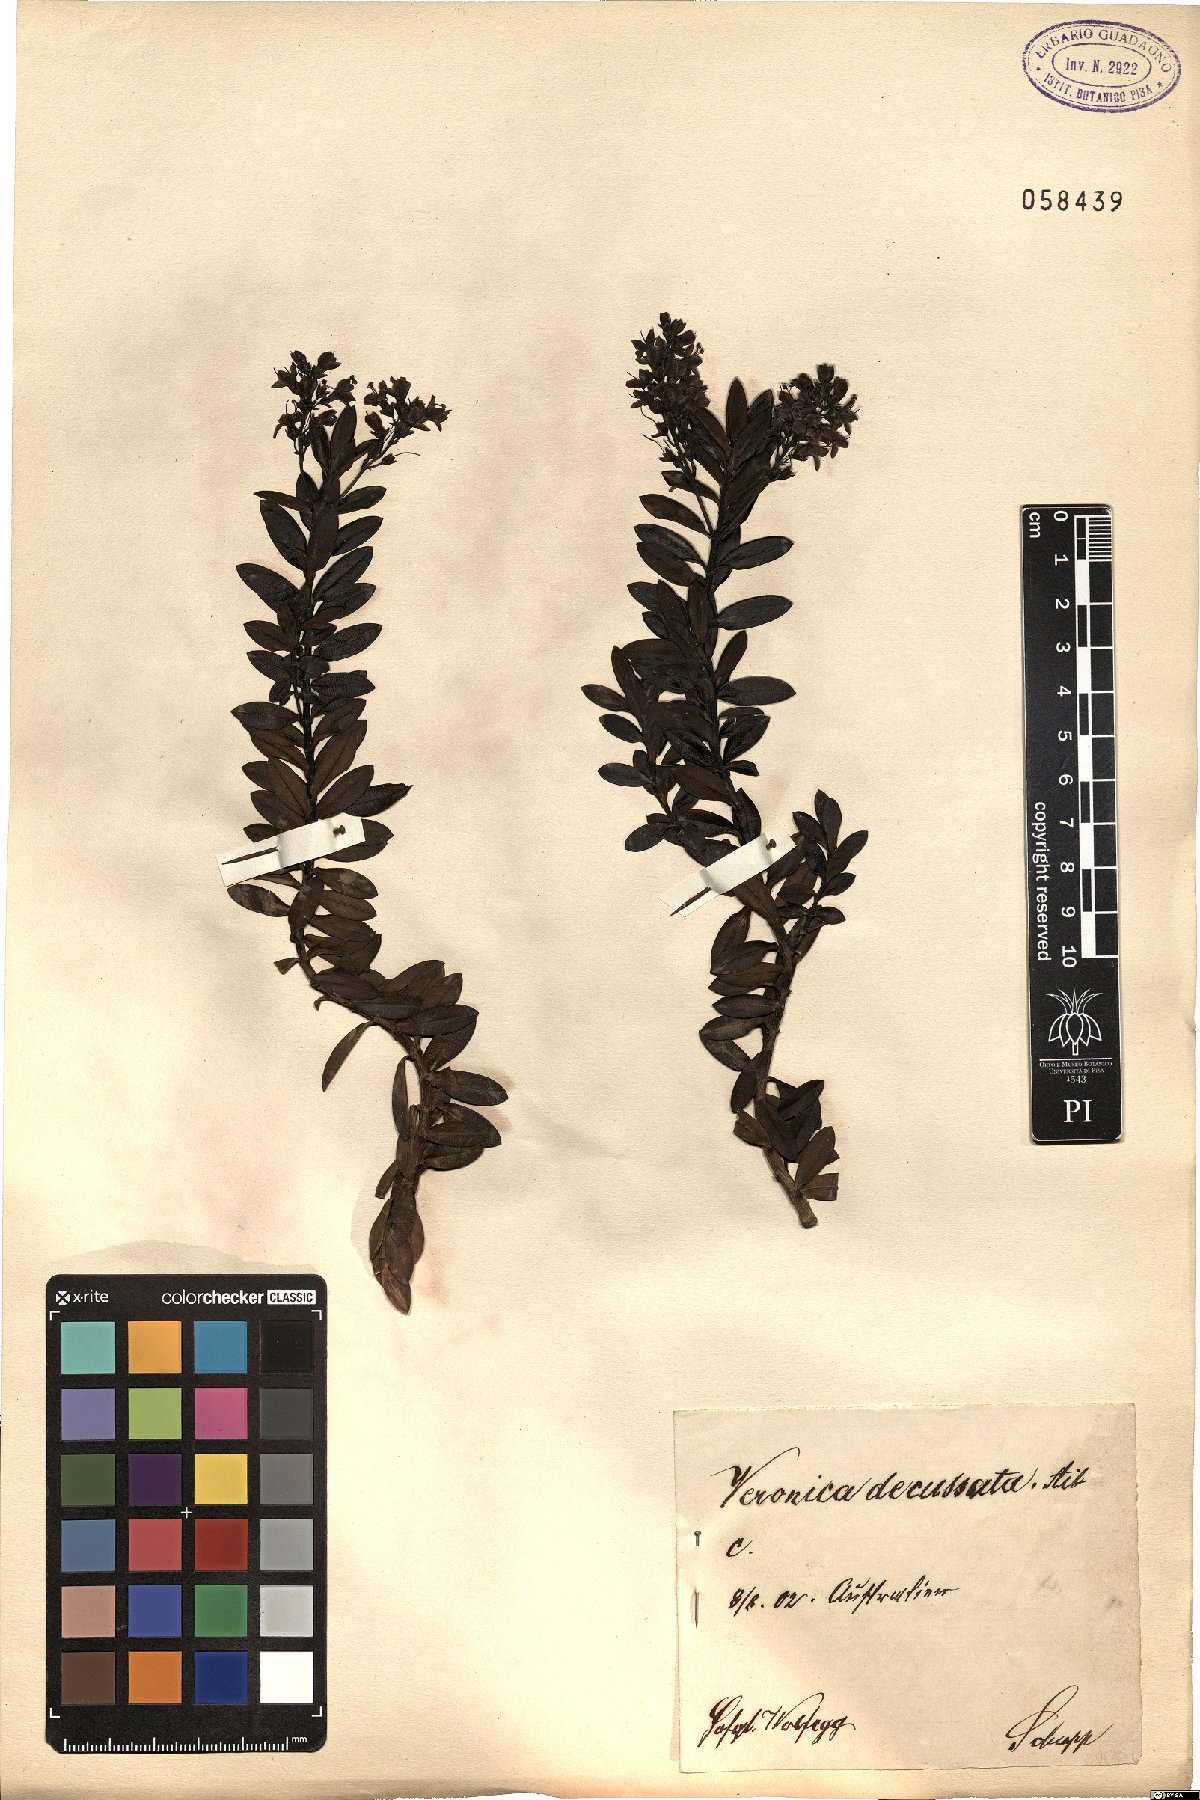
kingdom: Plantae
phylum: Tracheophyta
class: Magnoliopsida
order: Lamiales
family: Plantaginaceae
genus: Veronica
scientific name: Veronica elliptica
